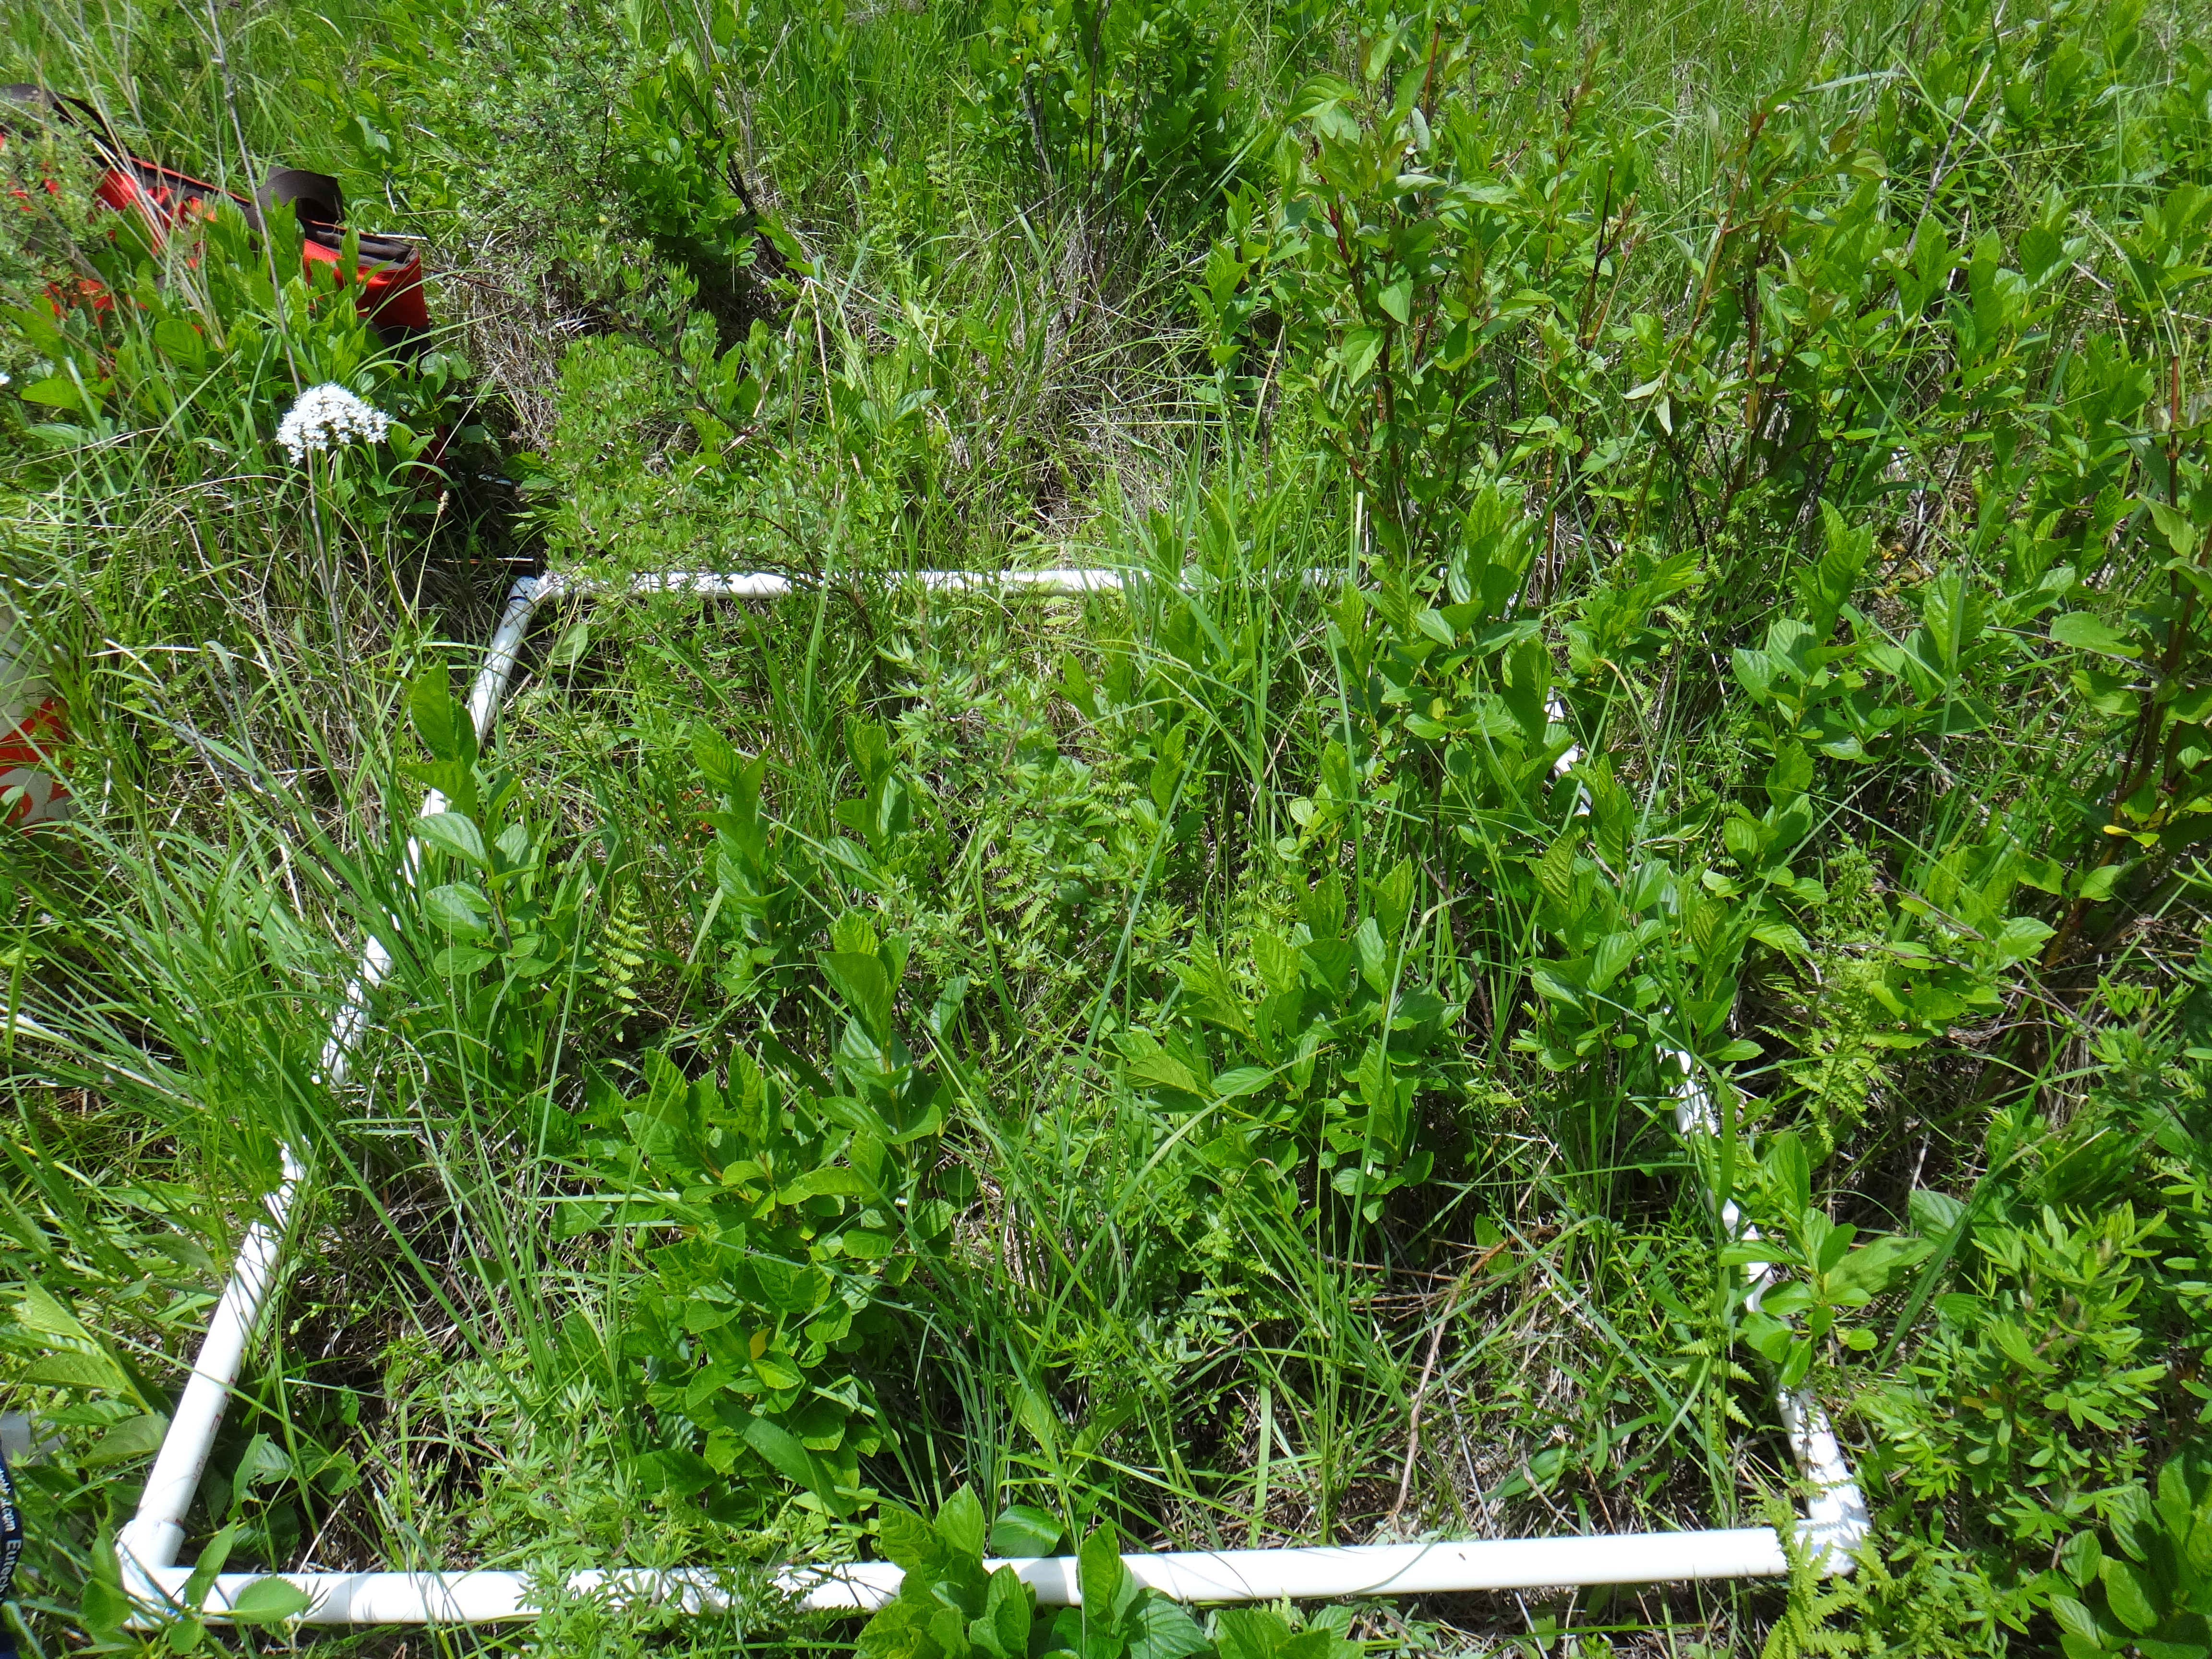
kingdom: Plantae
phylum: Tracheophyta
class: Magnoliopsida
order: Asterales
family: Asteraceae
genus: Rudbeckia
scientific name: Rudbeckia fulgida
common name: Perennial coneflower
